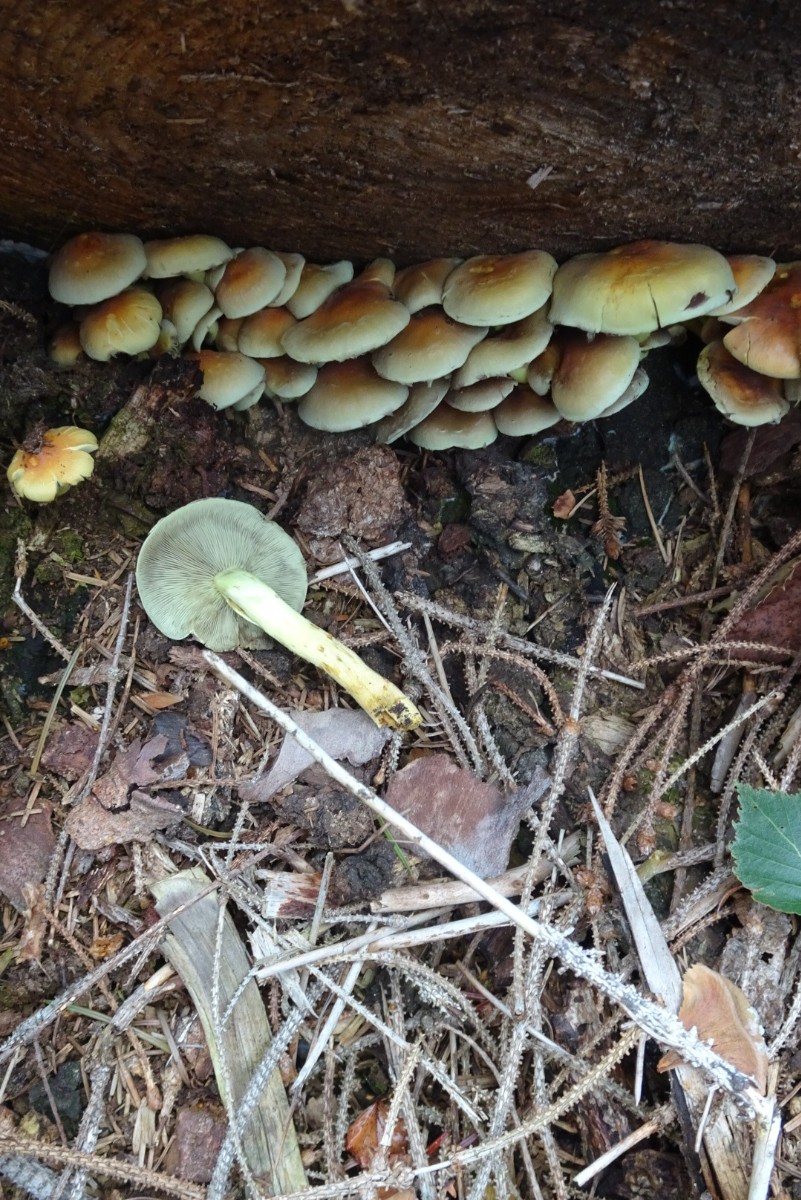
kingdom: Fungi
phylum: Basidiomycota
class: Agaricomycetes
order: Agaricales
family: Strophariaceae
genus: Hypholoma
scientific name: Hypholoma fasciculare
